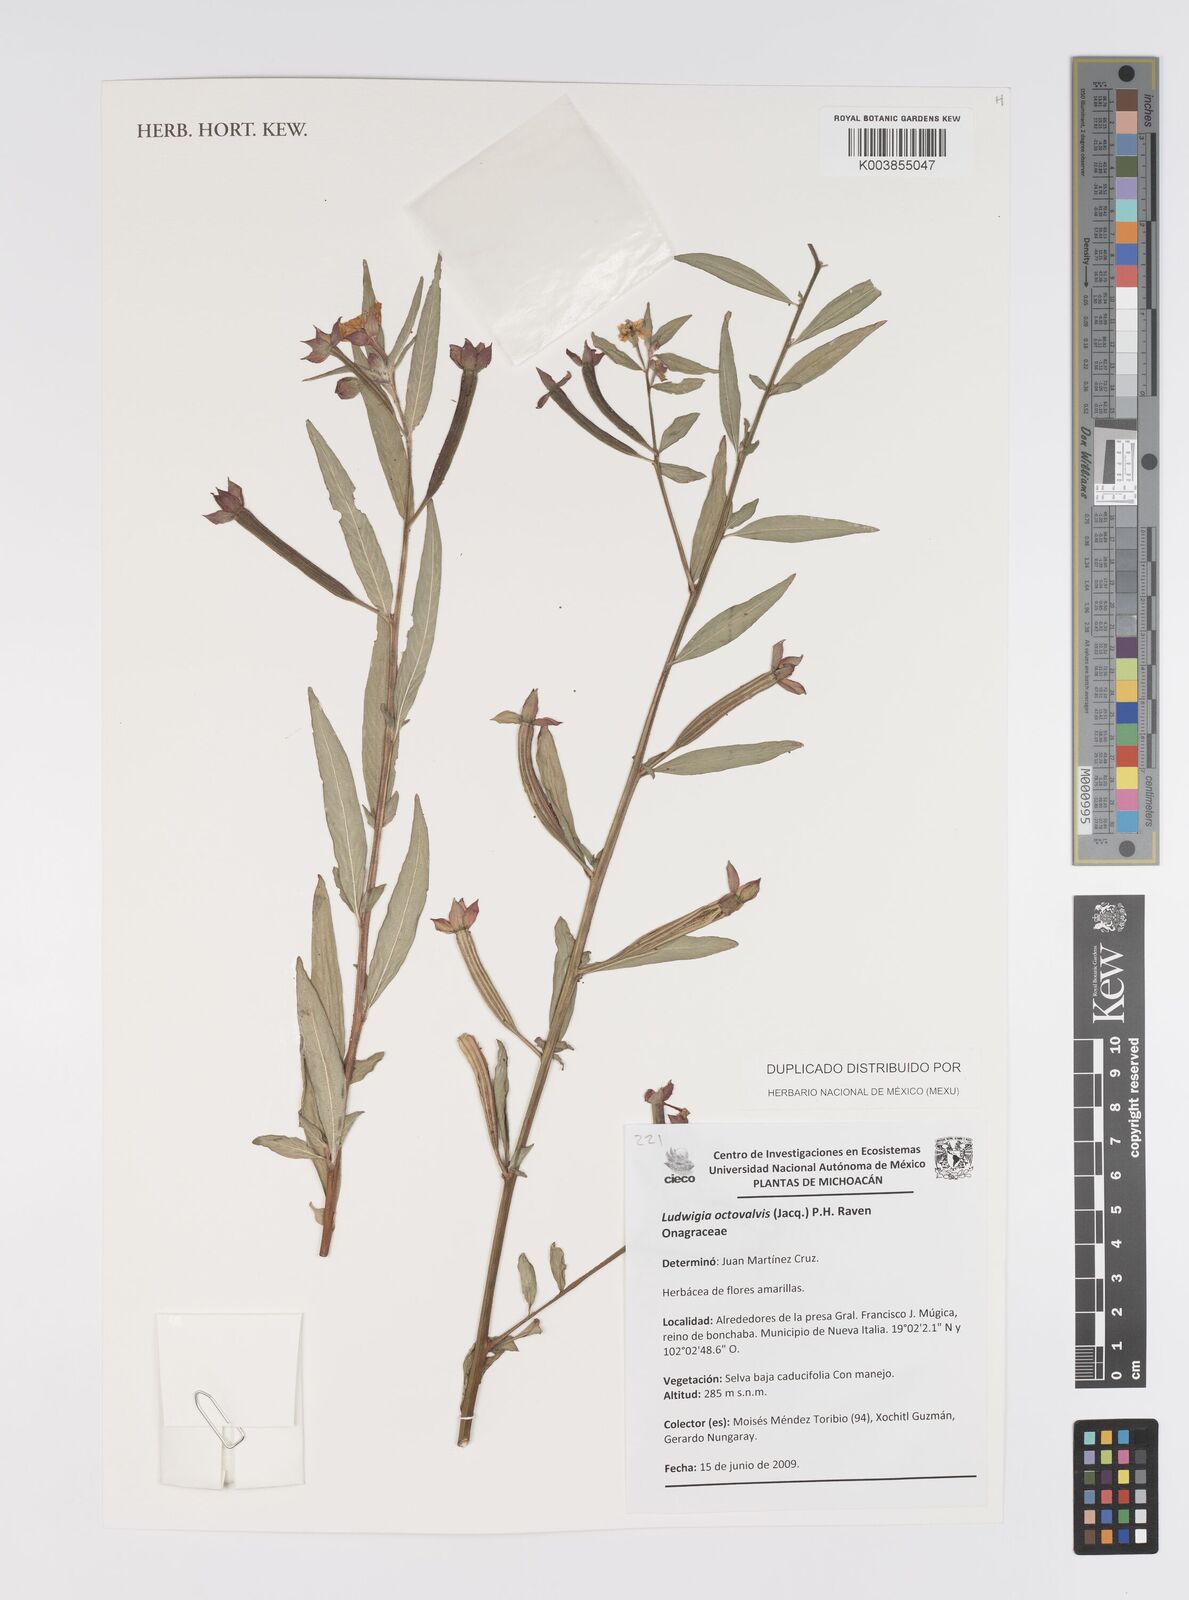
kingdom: Plantae
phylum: Tracheophyta
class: Magnoliopsida
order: Myrtales
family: Onagraceae
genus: Ludwigia
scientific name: Ludwigia octovalvis
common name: Water-primrose
